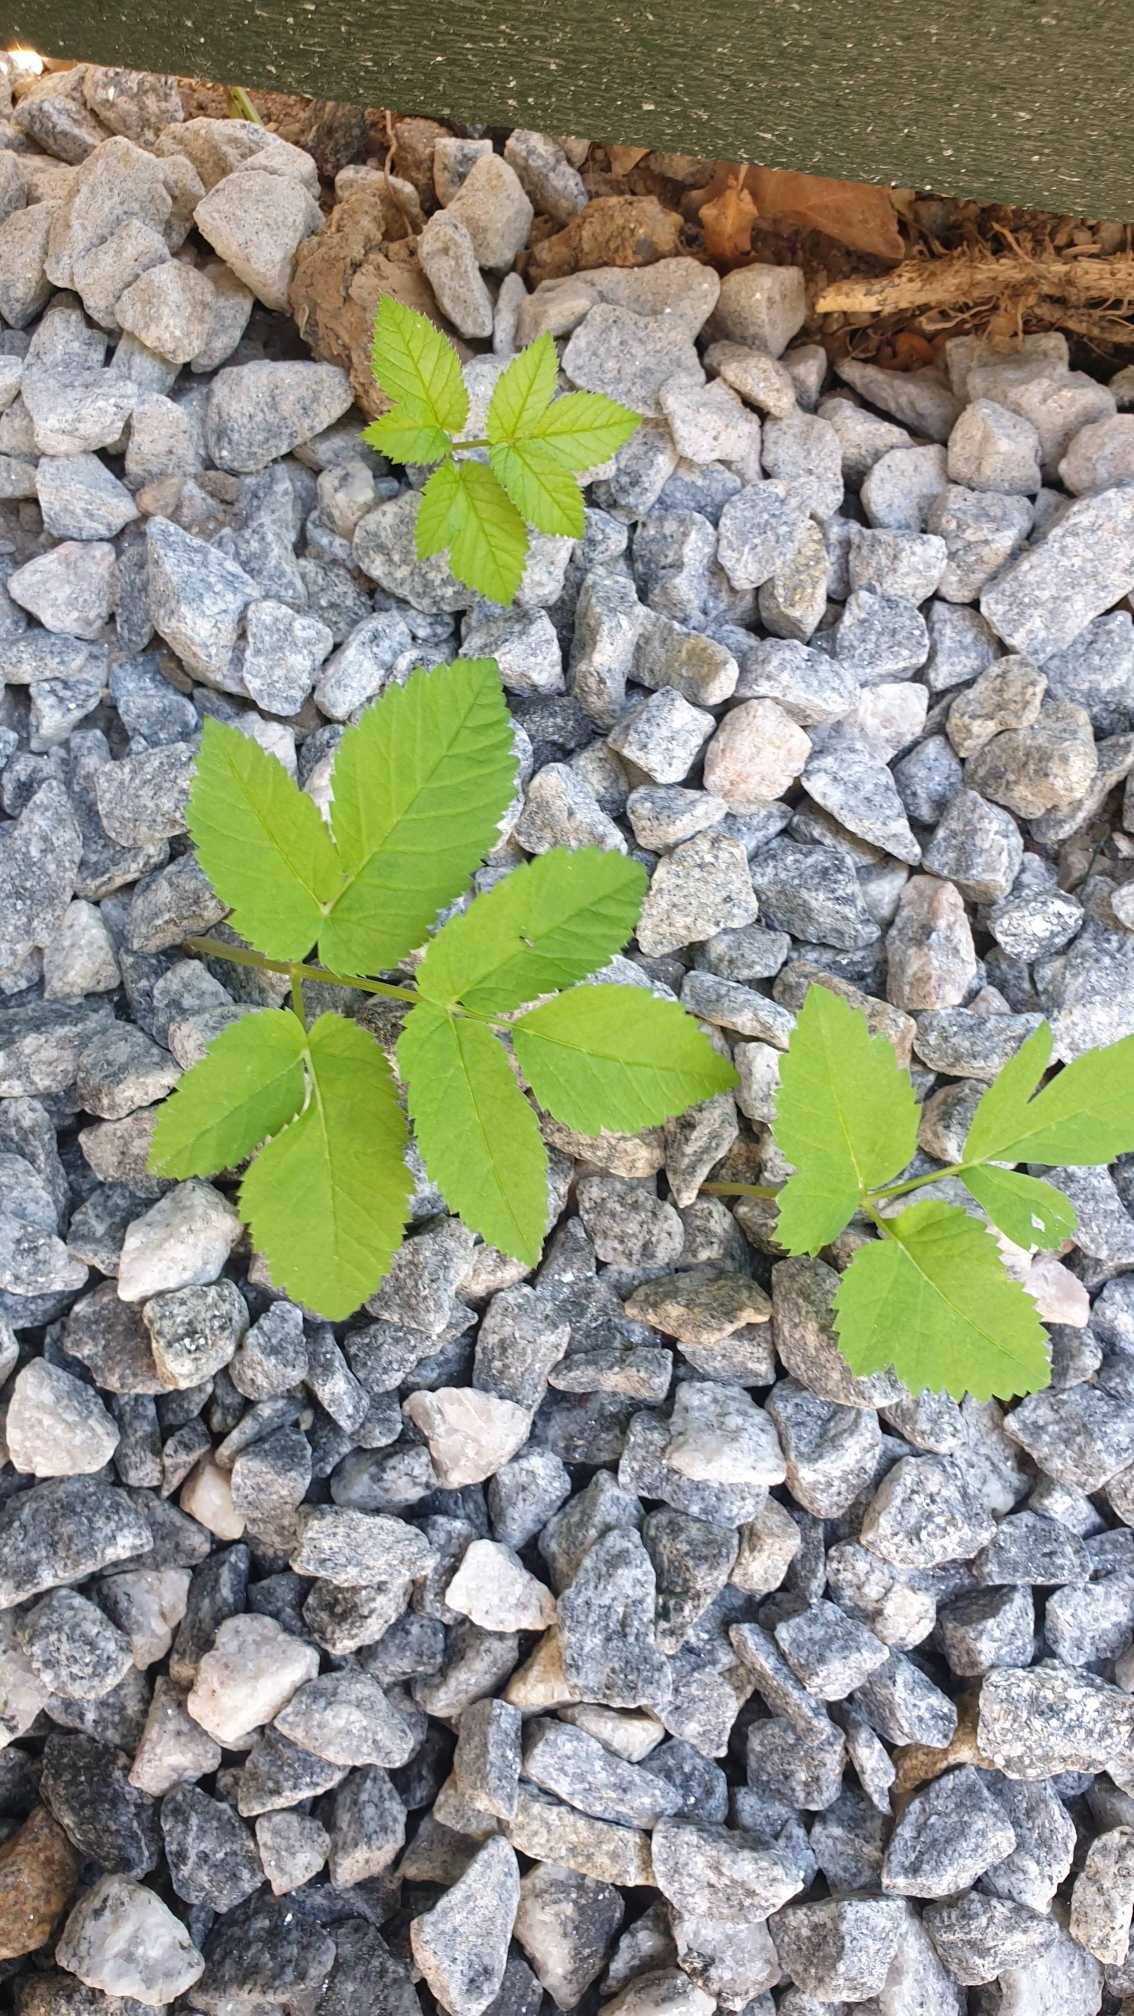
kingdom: Plantae
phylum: Tracheophyta
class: Magnoliopsida
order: Apiales
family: Apiaceae
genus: Aegopodium
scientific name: Aegopodium podagraria
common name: Skvalderkål
